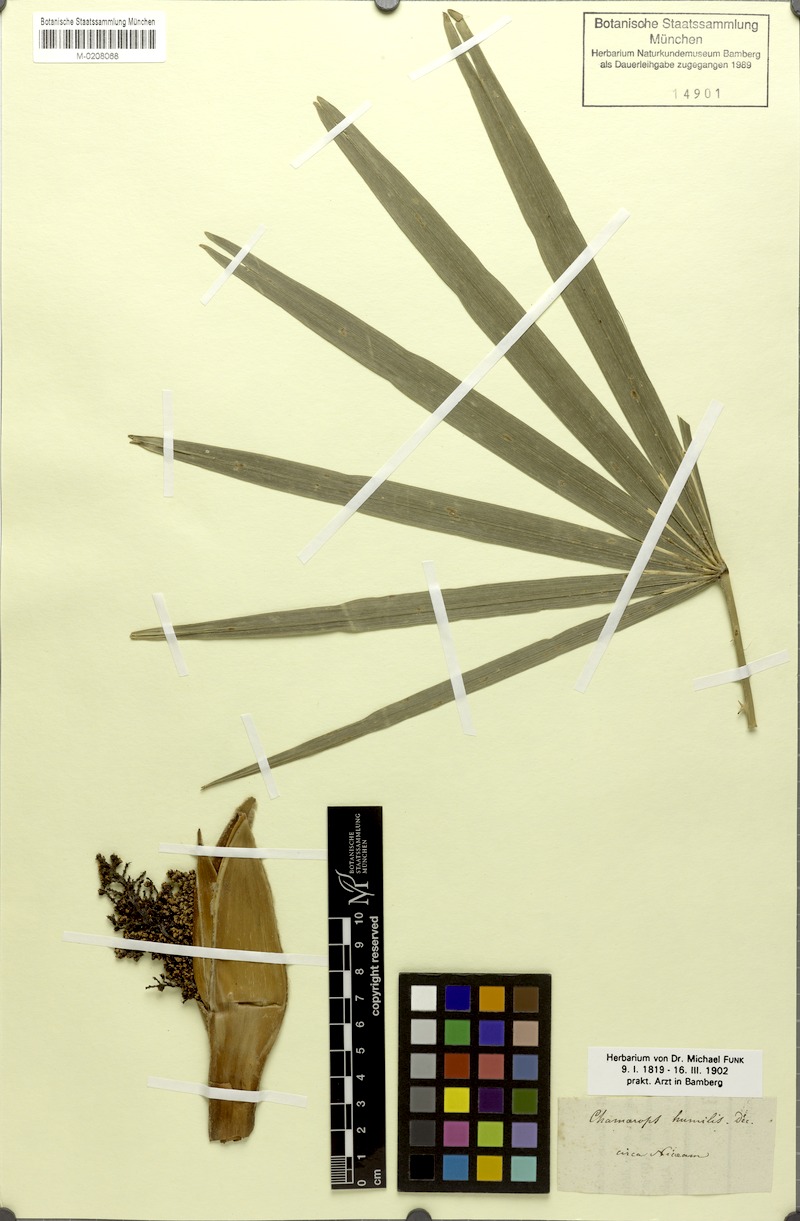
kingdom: Plantae
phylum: Tracheophyta
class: Liliopsida
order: Arecales
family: Arecaceae
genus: Chamaerops
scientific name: Chamaerops humilis
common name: Dwarf fan palm
